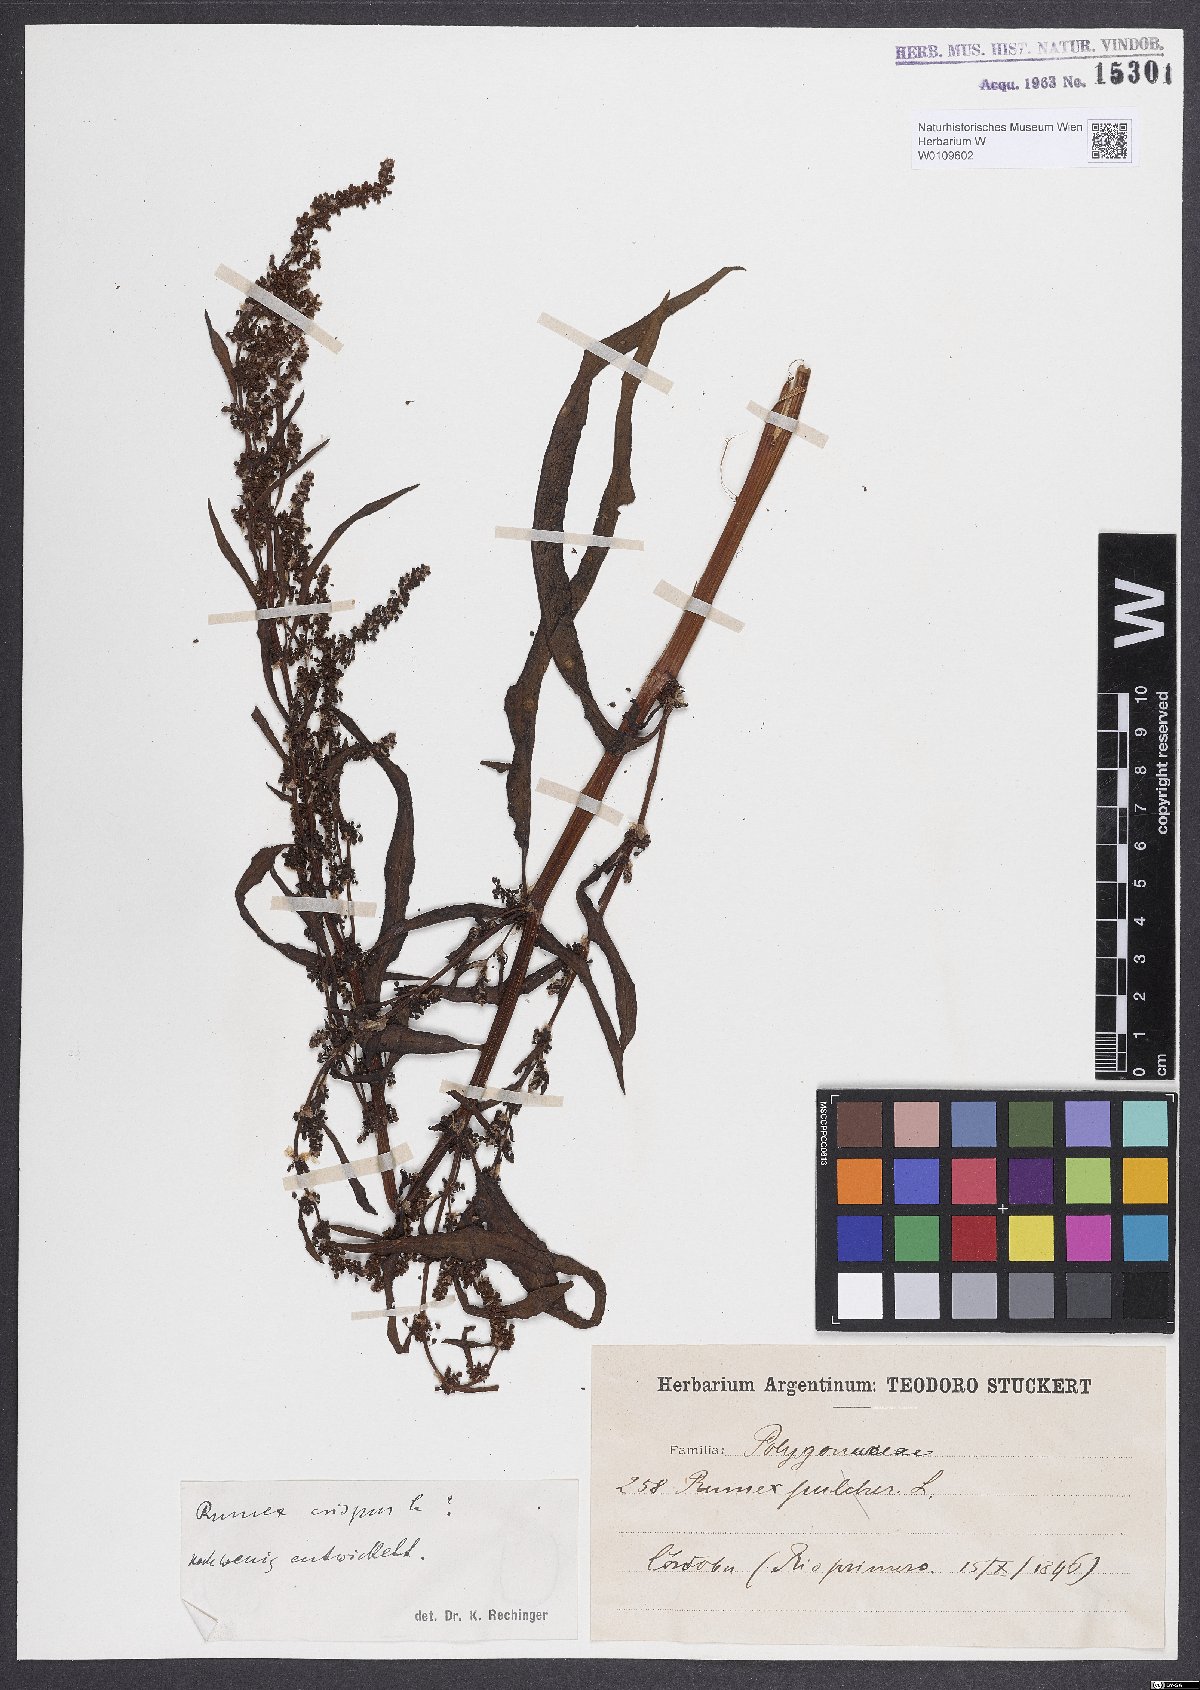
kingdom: Plantae
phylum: Tracheophyta
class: Magnoliopsida
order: Caryophyllales
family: Polygonaceae
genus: Rumex
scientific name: Rumex crispus
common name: Curled dock
